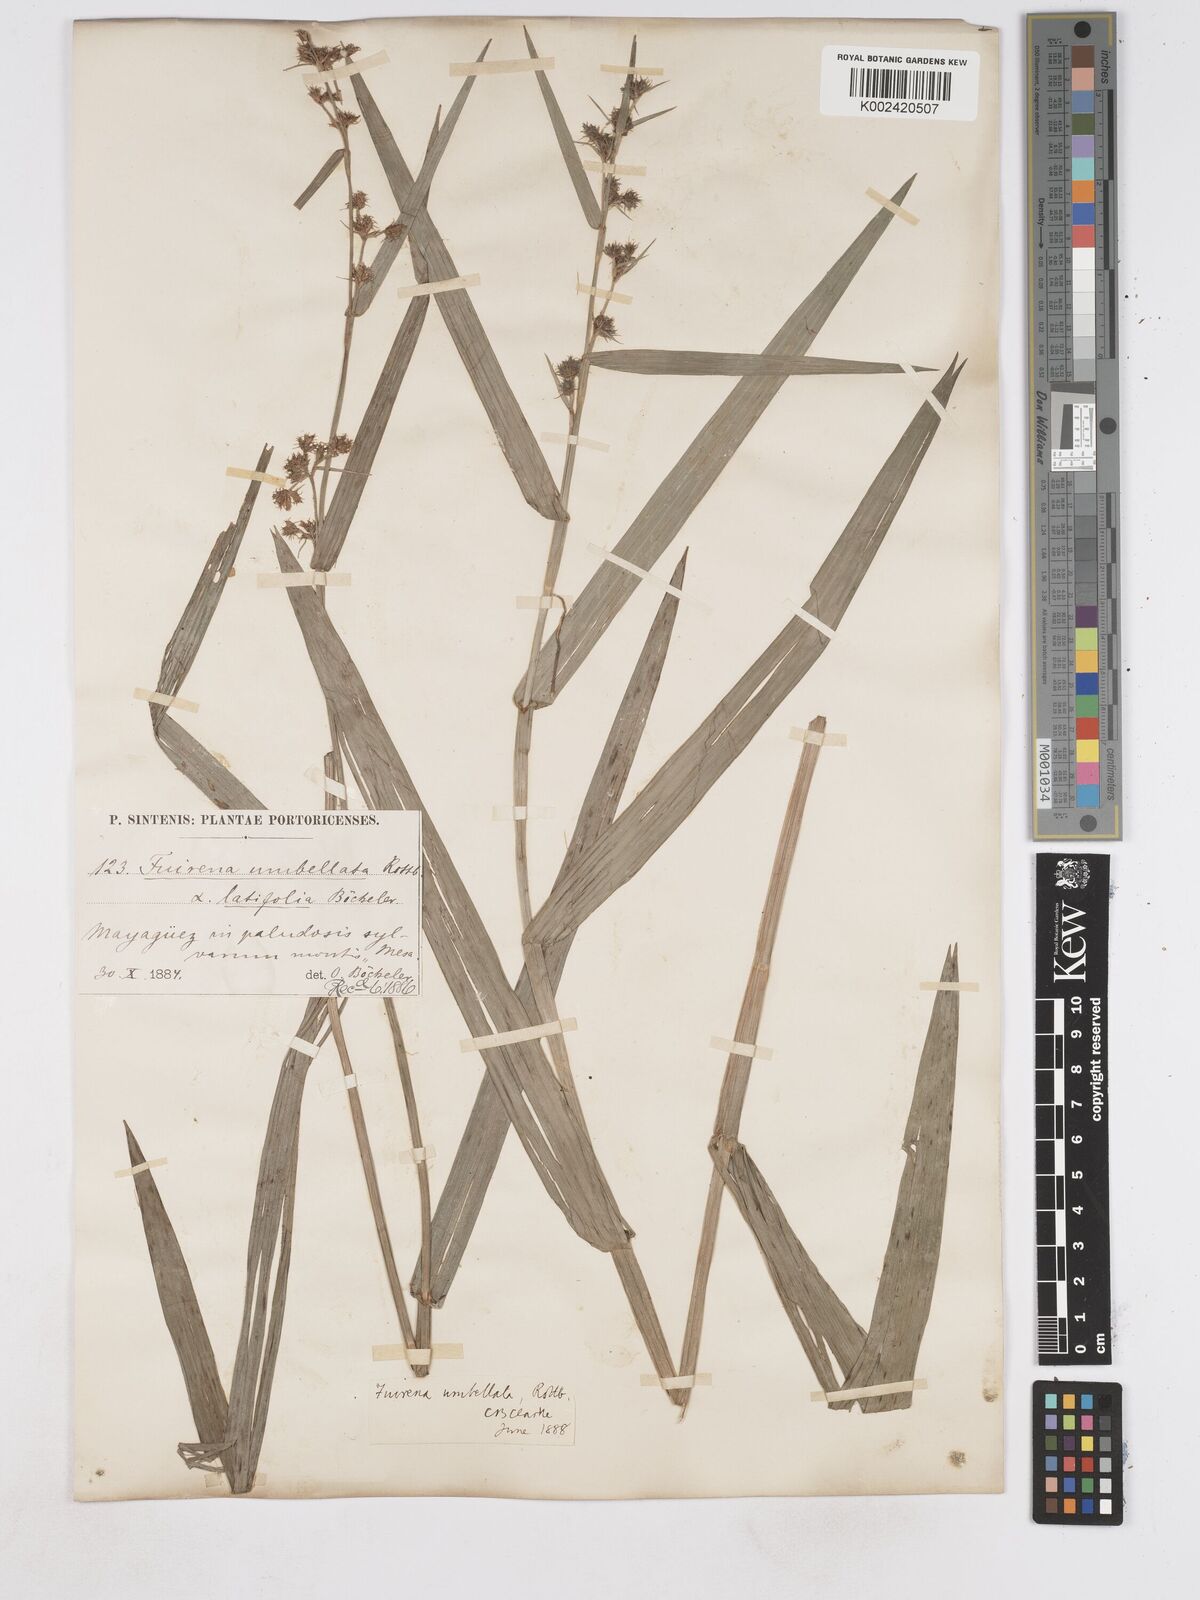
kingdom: Plantae
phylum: Tracheophyta
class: Liliopsida
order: Poales
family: Cyperaceae
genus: Fuirena
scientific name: Fuirena umbellata
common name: Yefen
